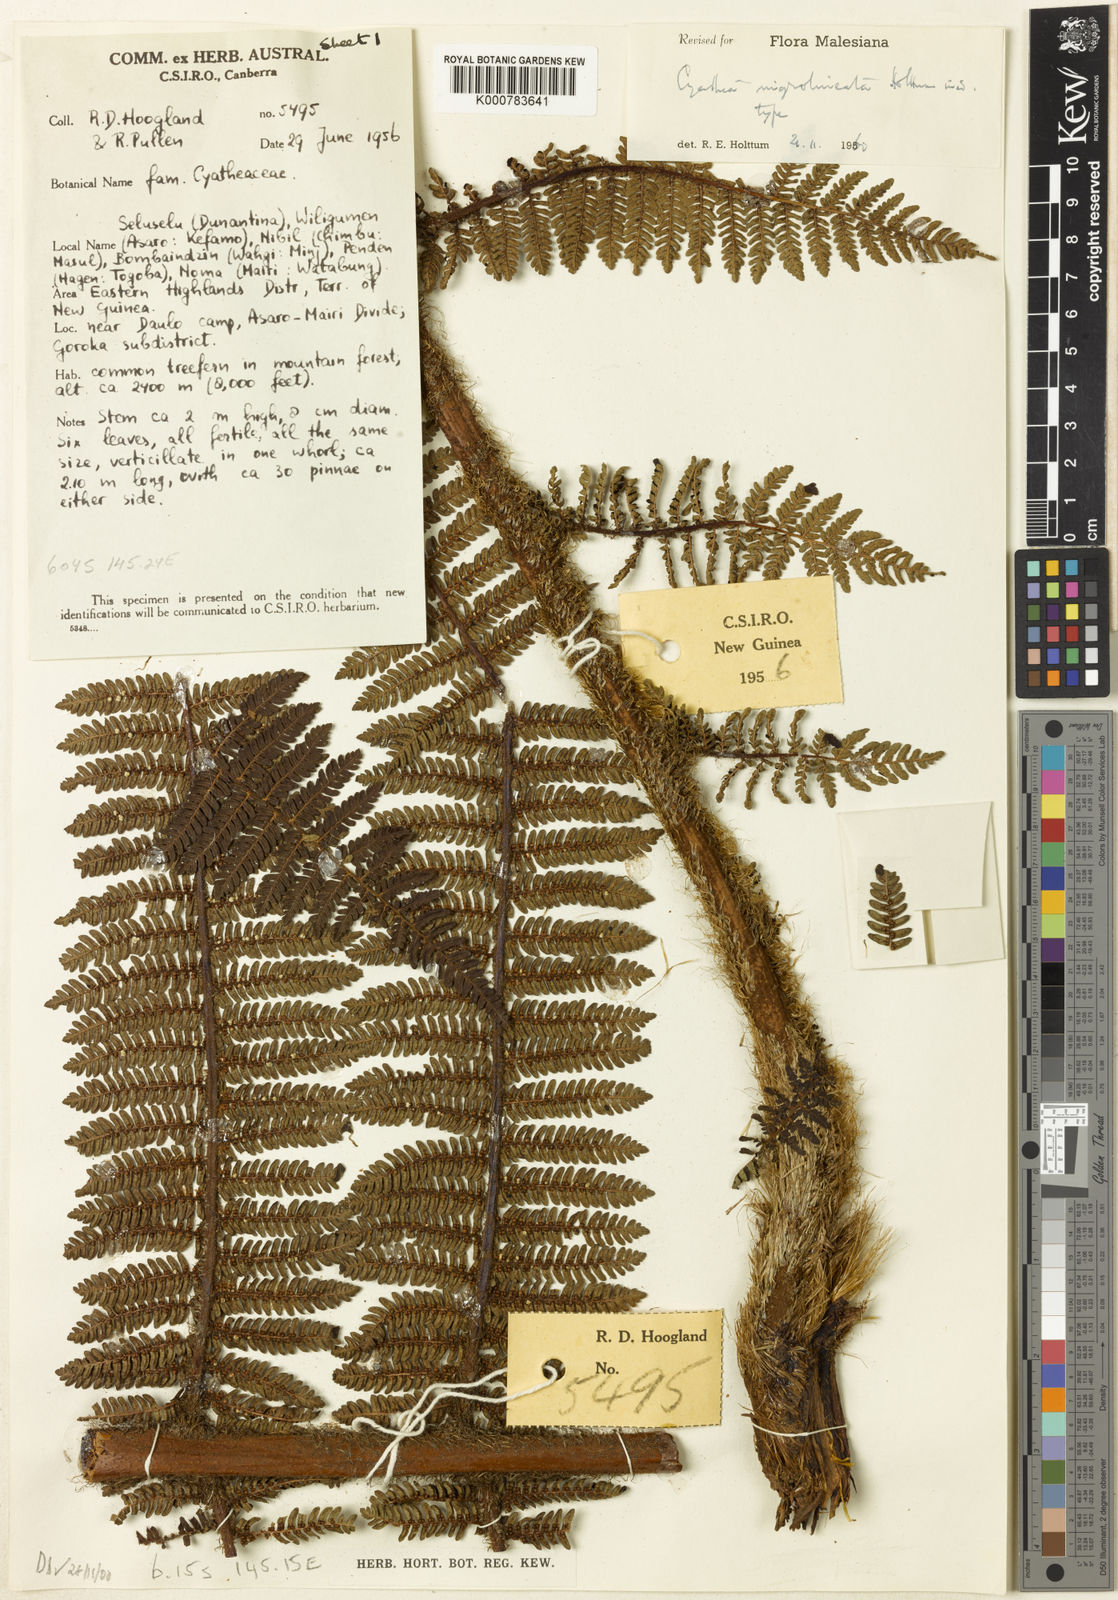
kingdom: Plantae
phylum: Tracheophyta
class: Polypodiopsida
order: Cyatheales
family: Cyatheaceae
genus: Alsophila
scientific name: Alsophila nigrolineata
